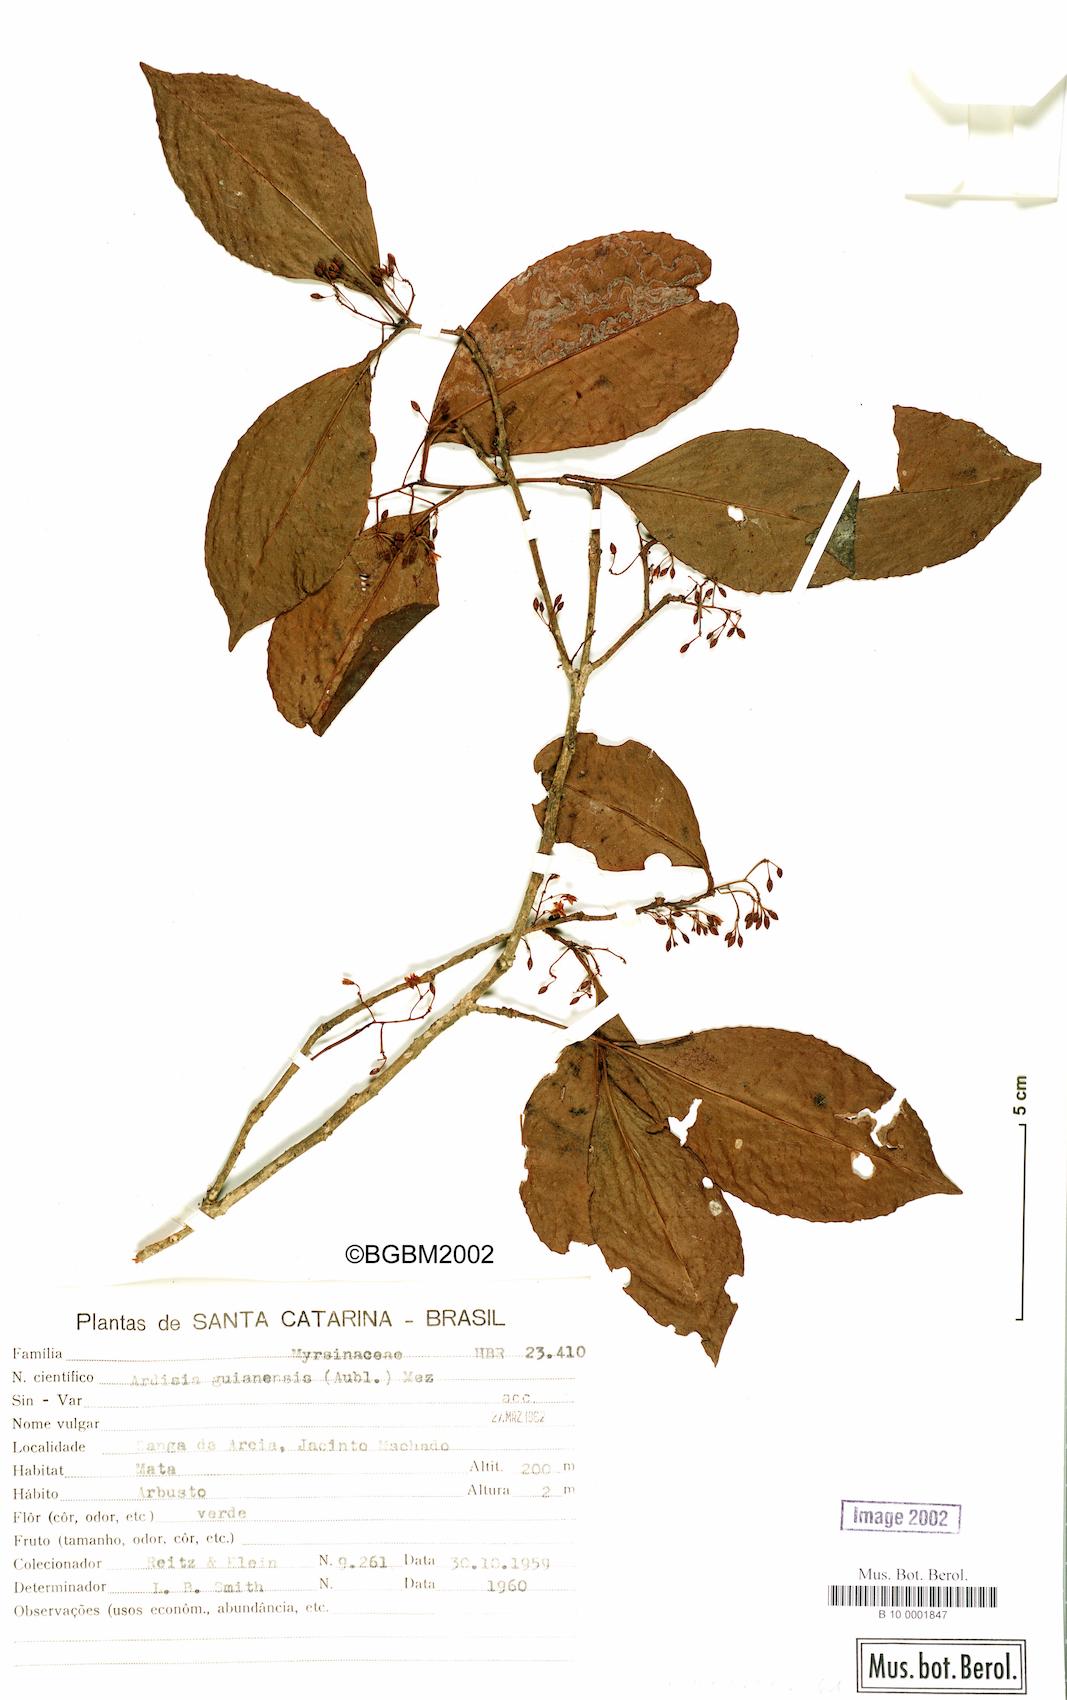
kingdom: Plantae
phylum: Tracheophyta
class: Magnoliopsida
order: Ericales
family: Primulaceae
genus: Ardisia
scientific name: Ardisia guianensis
